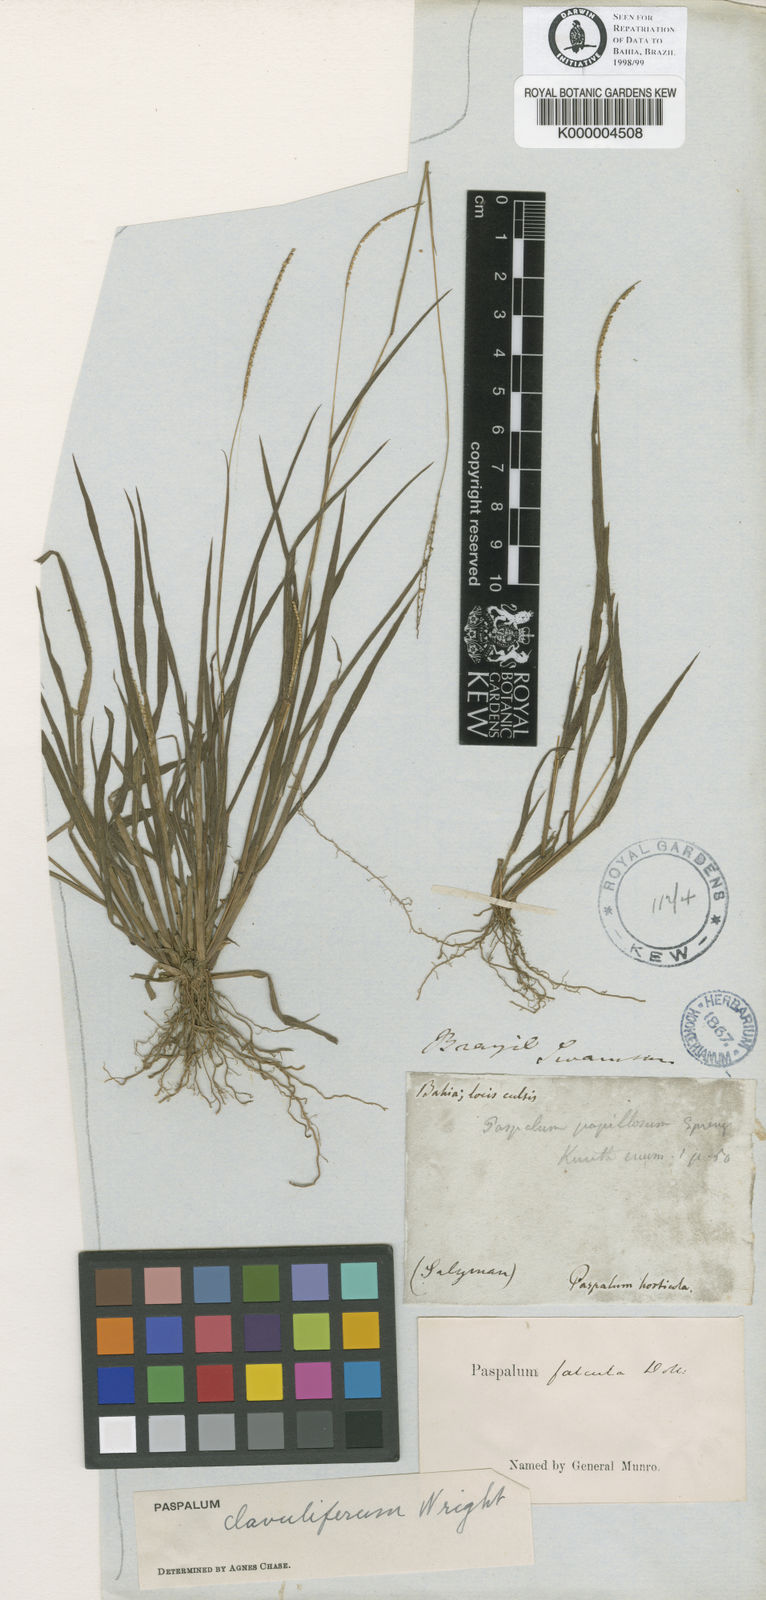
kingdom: Plantae
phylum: Tracheophyta
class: Liliopsida
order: Poales
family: Poaceae
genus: Paspalum
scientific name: Paspalum clavuliferum
